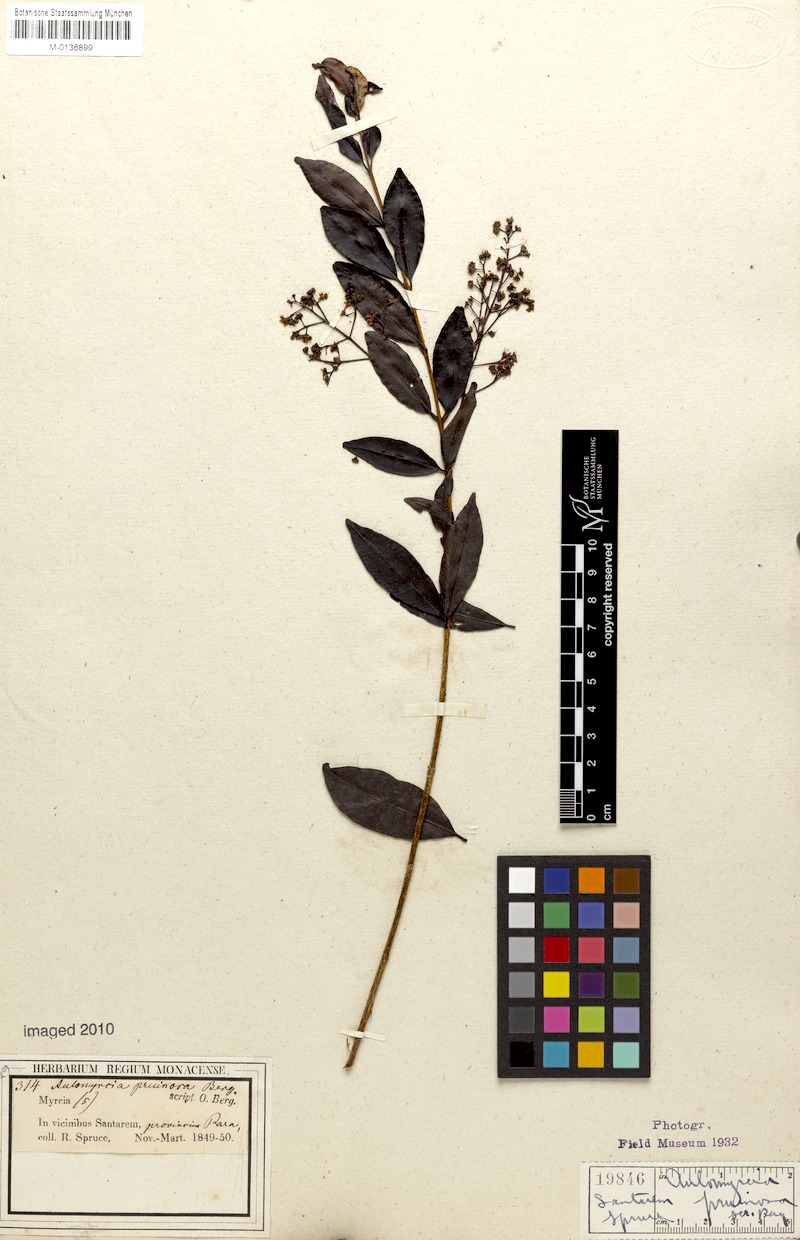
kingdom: Plantae
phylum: Tracheophyta
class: Magnoliopsida
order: Myrtales
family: Myrtaceae
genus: Myrcia
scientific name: Myrcia guianensis
